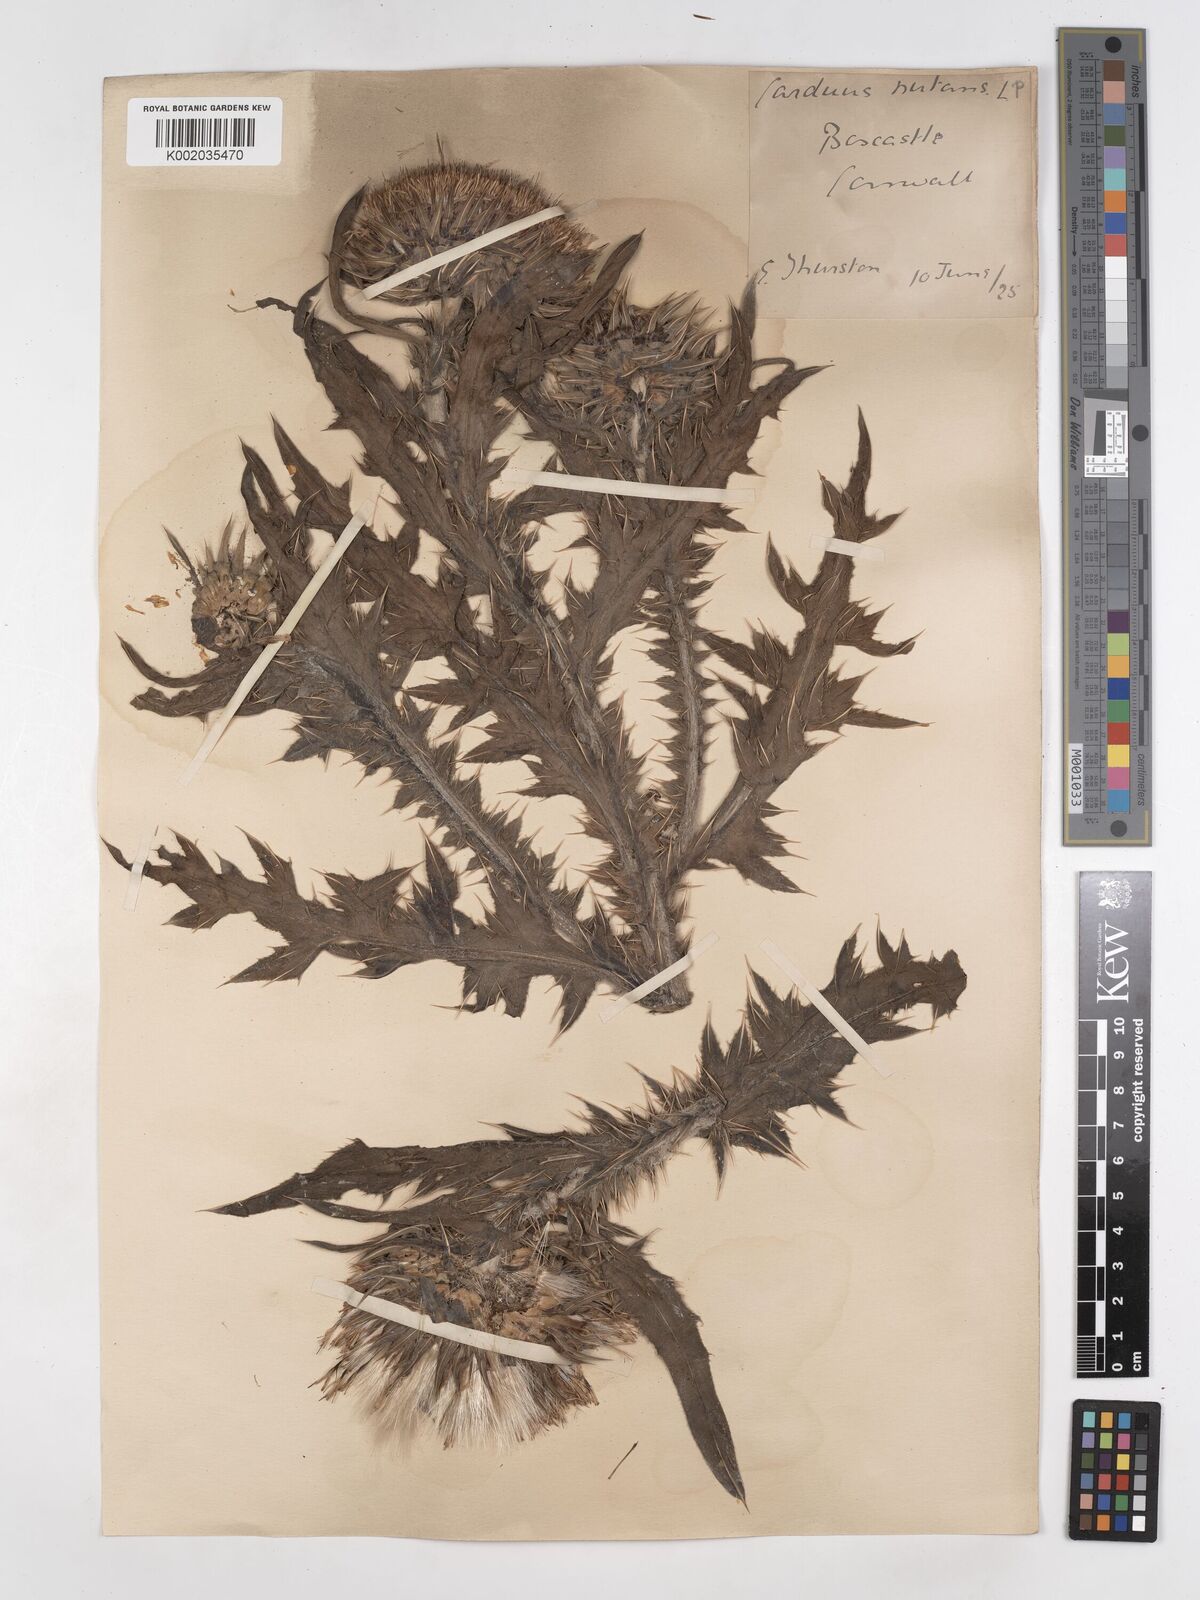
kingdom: Plantae
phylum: Tracheophyta
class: Magnoliopsida
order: Asterales
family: Asteraceae
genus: Carduus
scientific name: Carduus macrocephalus
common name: Giant thistle
